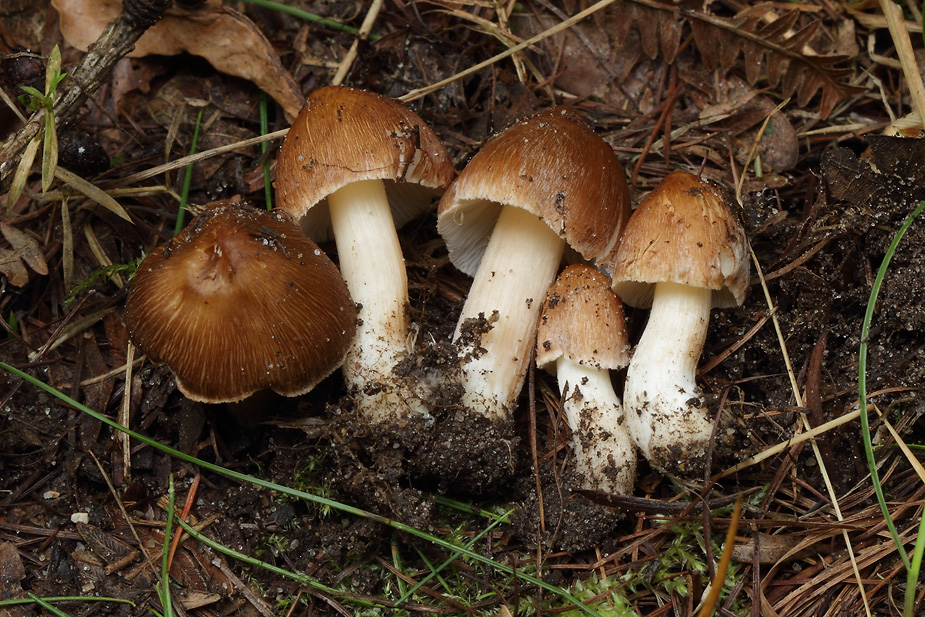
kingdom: Fungi
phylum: Basidiomycota
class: Agaricomycetes
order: Agaricales
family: Inocybaceae
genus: Inosperma
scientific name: Inosperma
